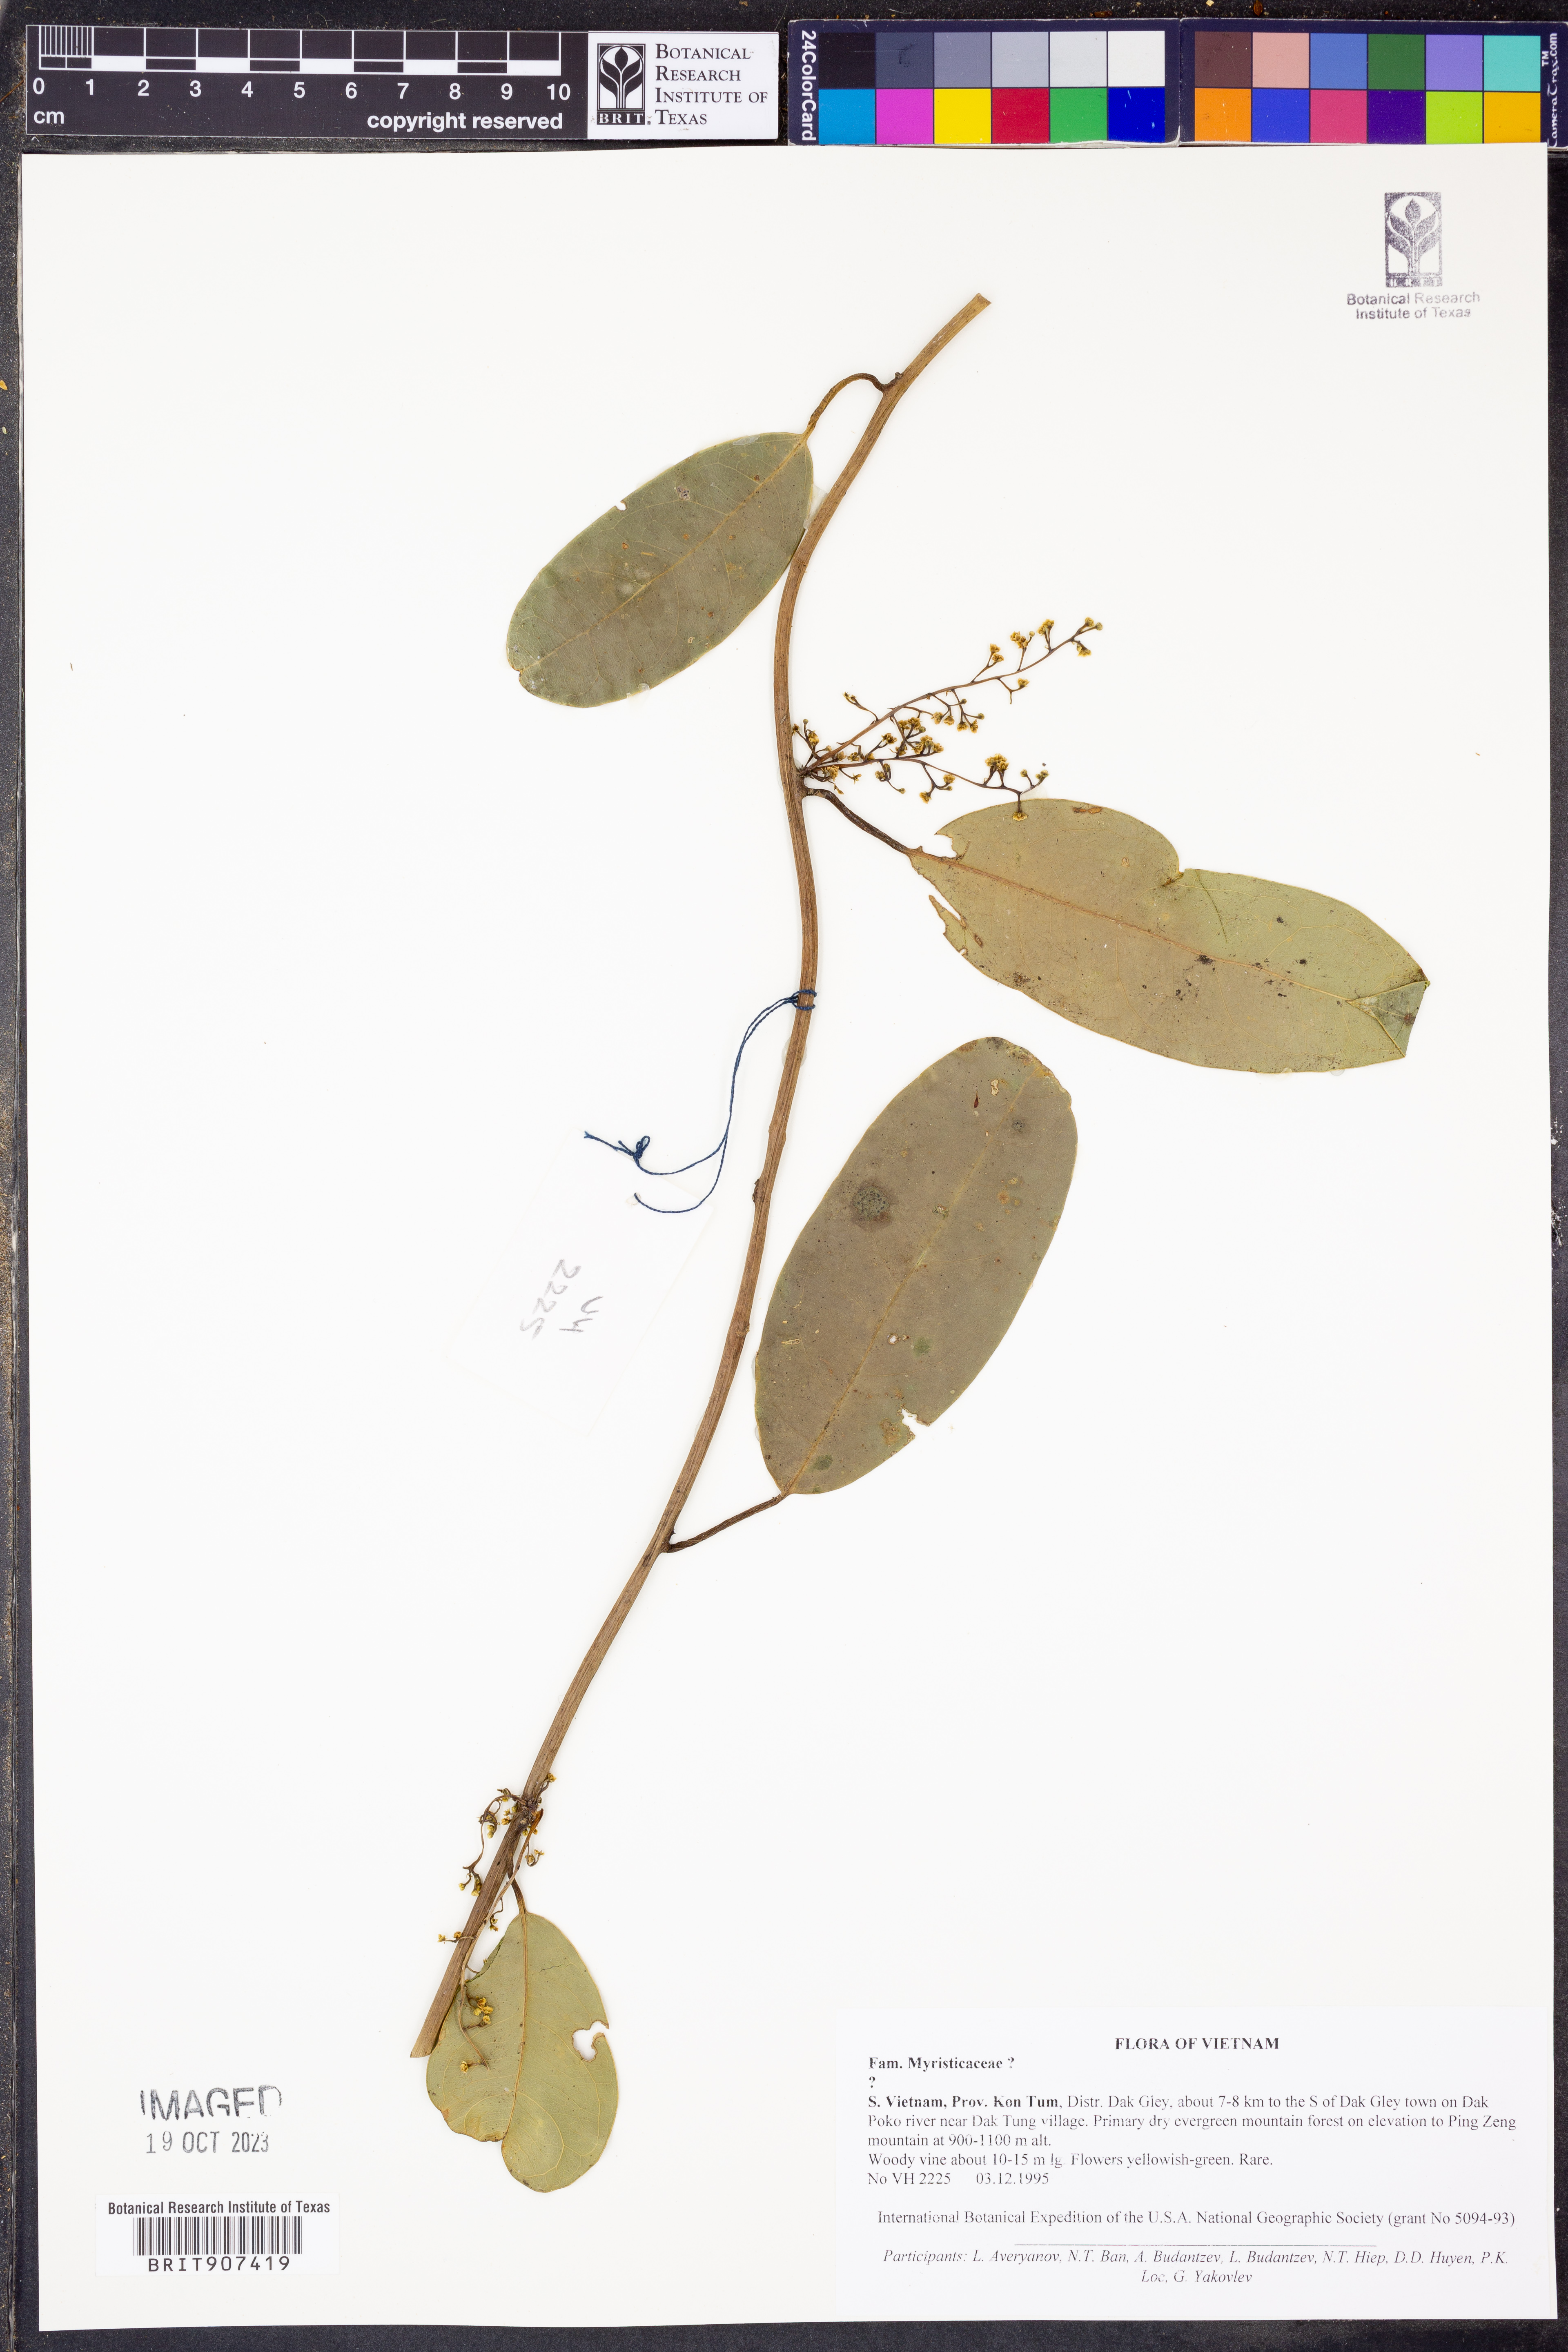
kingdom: Plantae
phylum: Tracheophyta
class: Magnoliopsida
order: Magnoliales
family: Myristicaceae
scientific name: Myristicaceae
